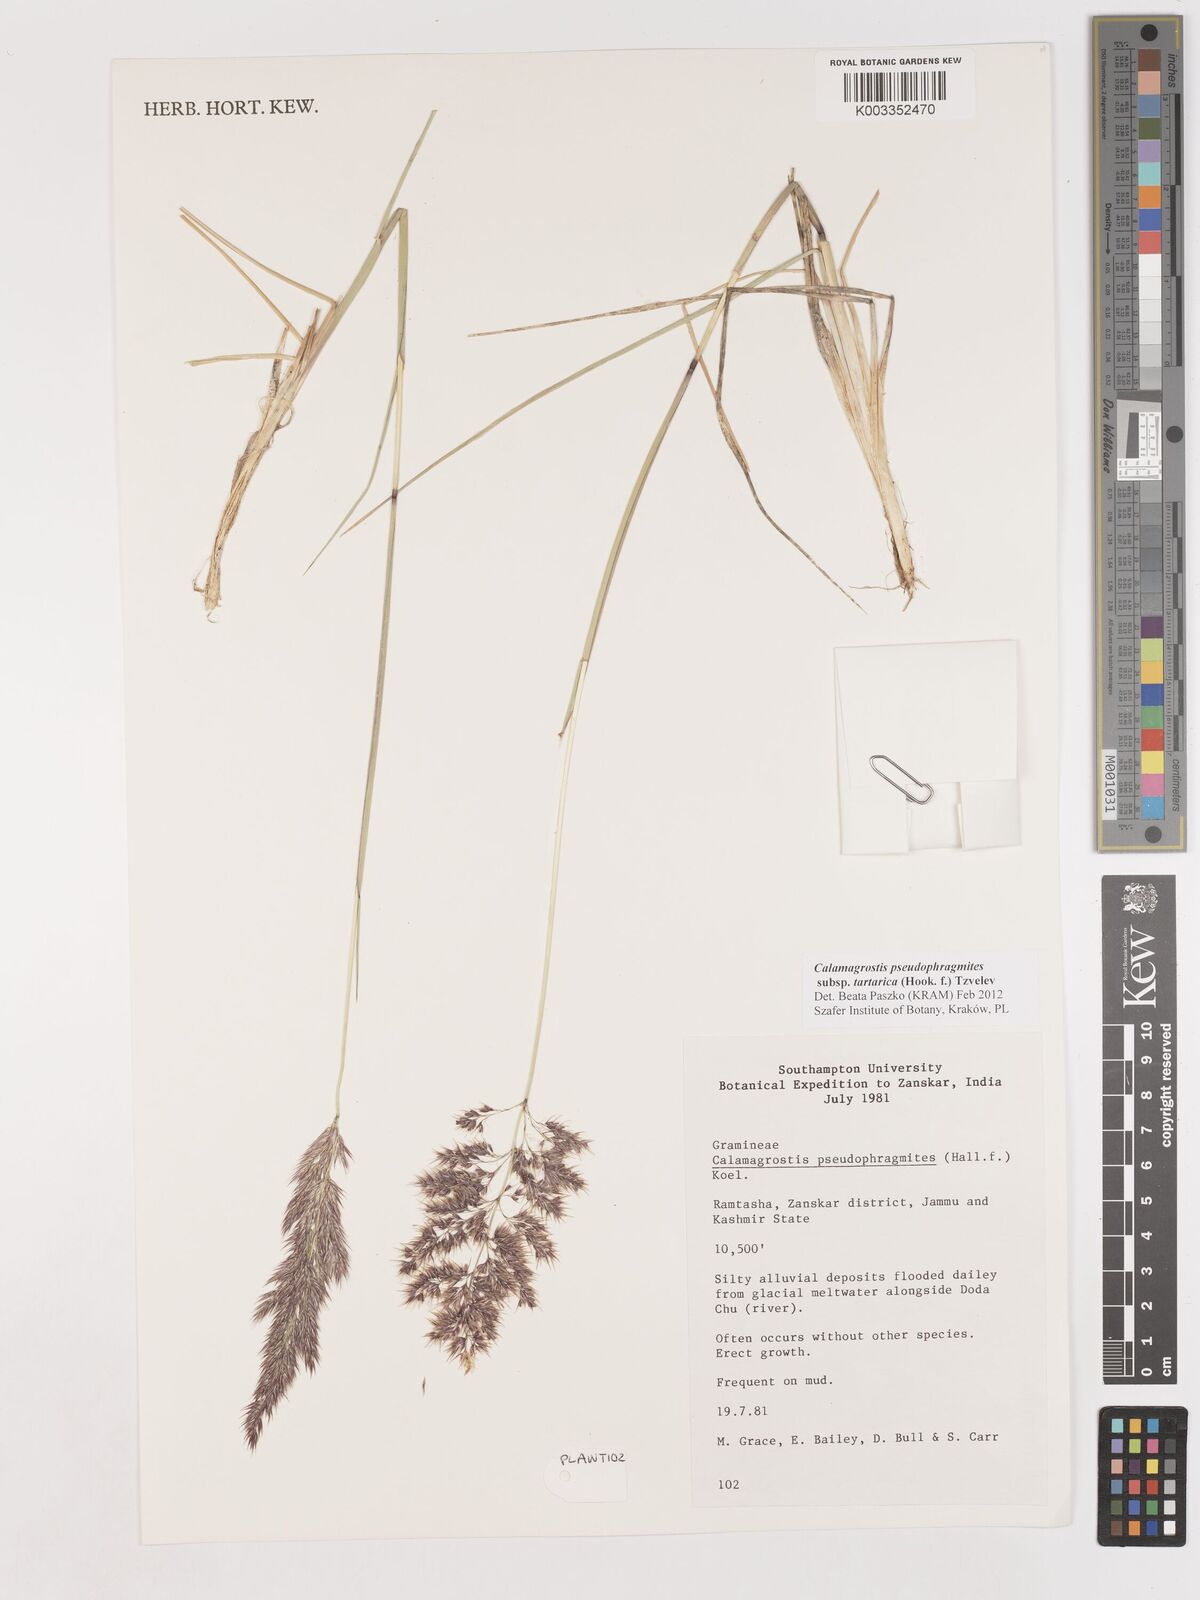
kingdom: Plantae
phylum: Tracheophyta
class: Liliopsida
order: Poales
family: Poaceae
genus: Calamagrostis
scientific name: Calamagrostis pseudophragmites
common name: Coastal small-reed
